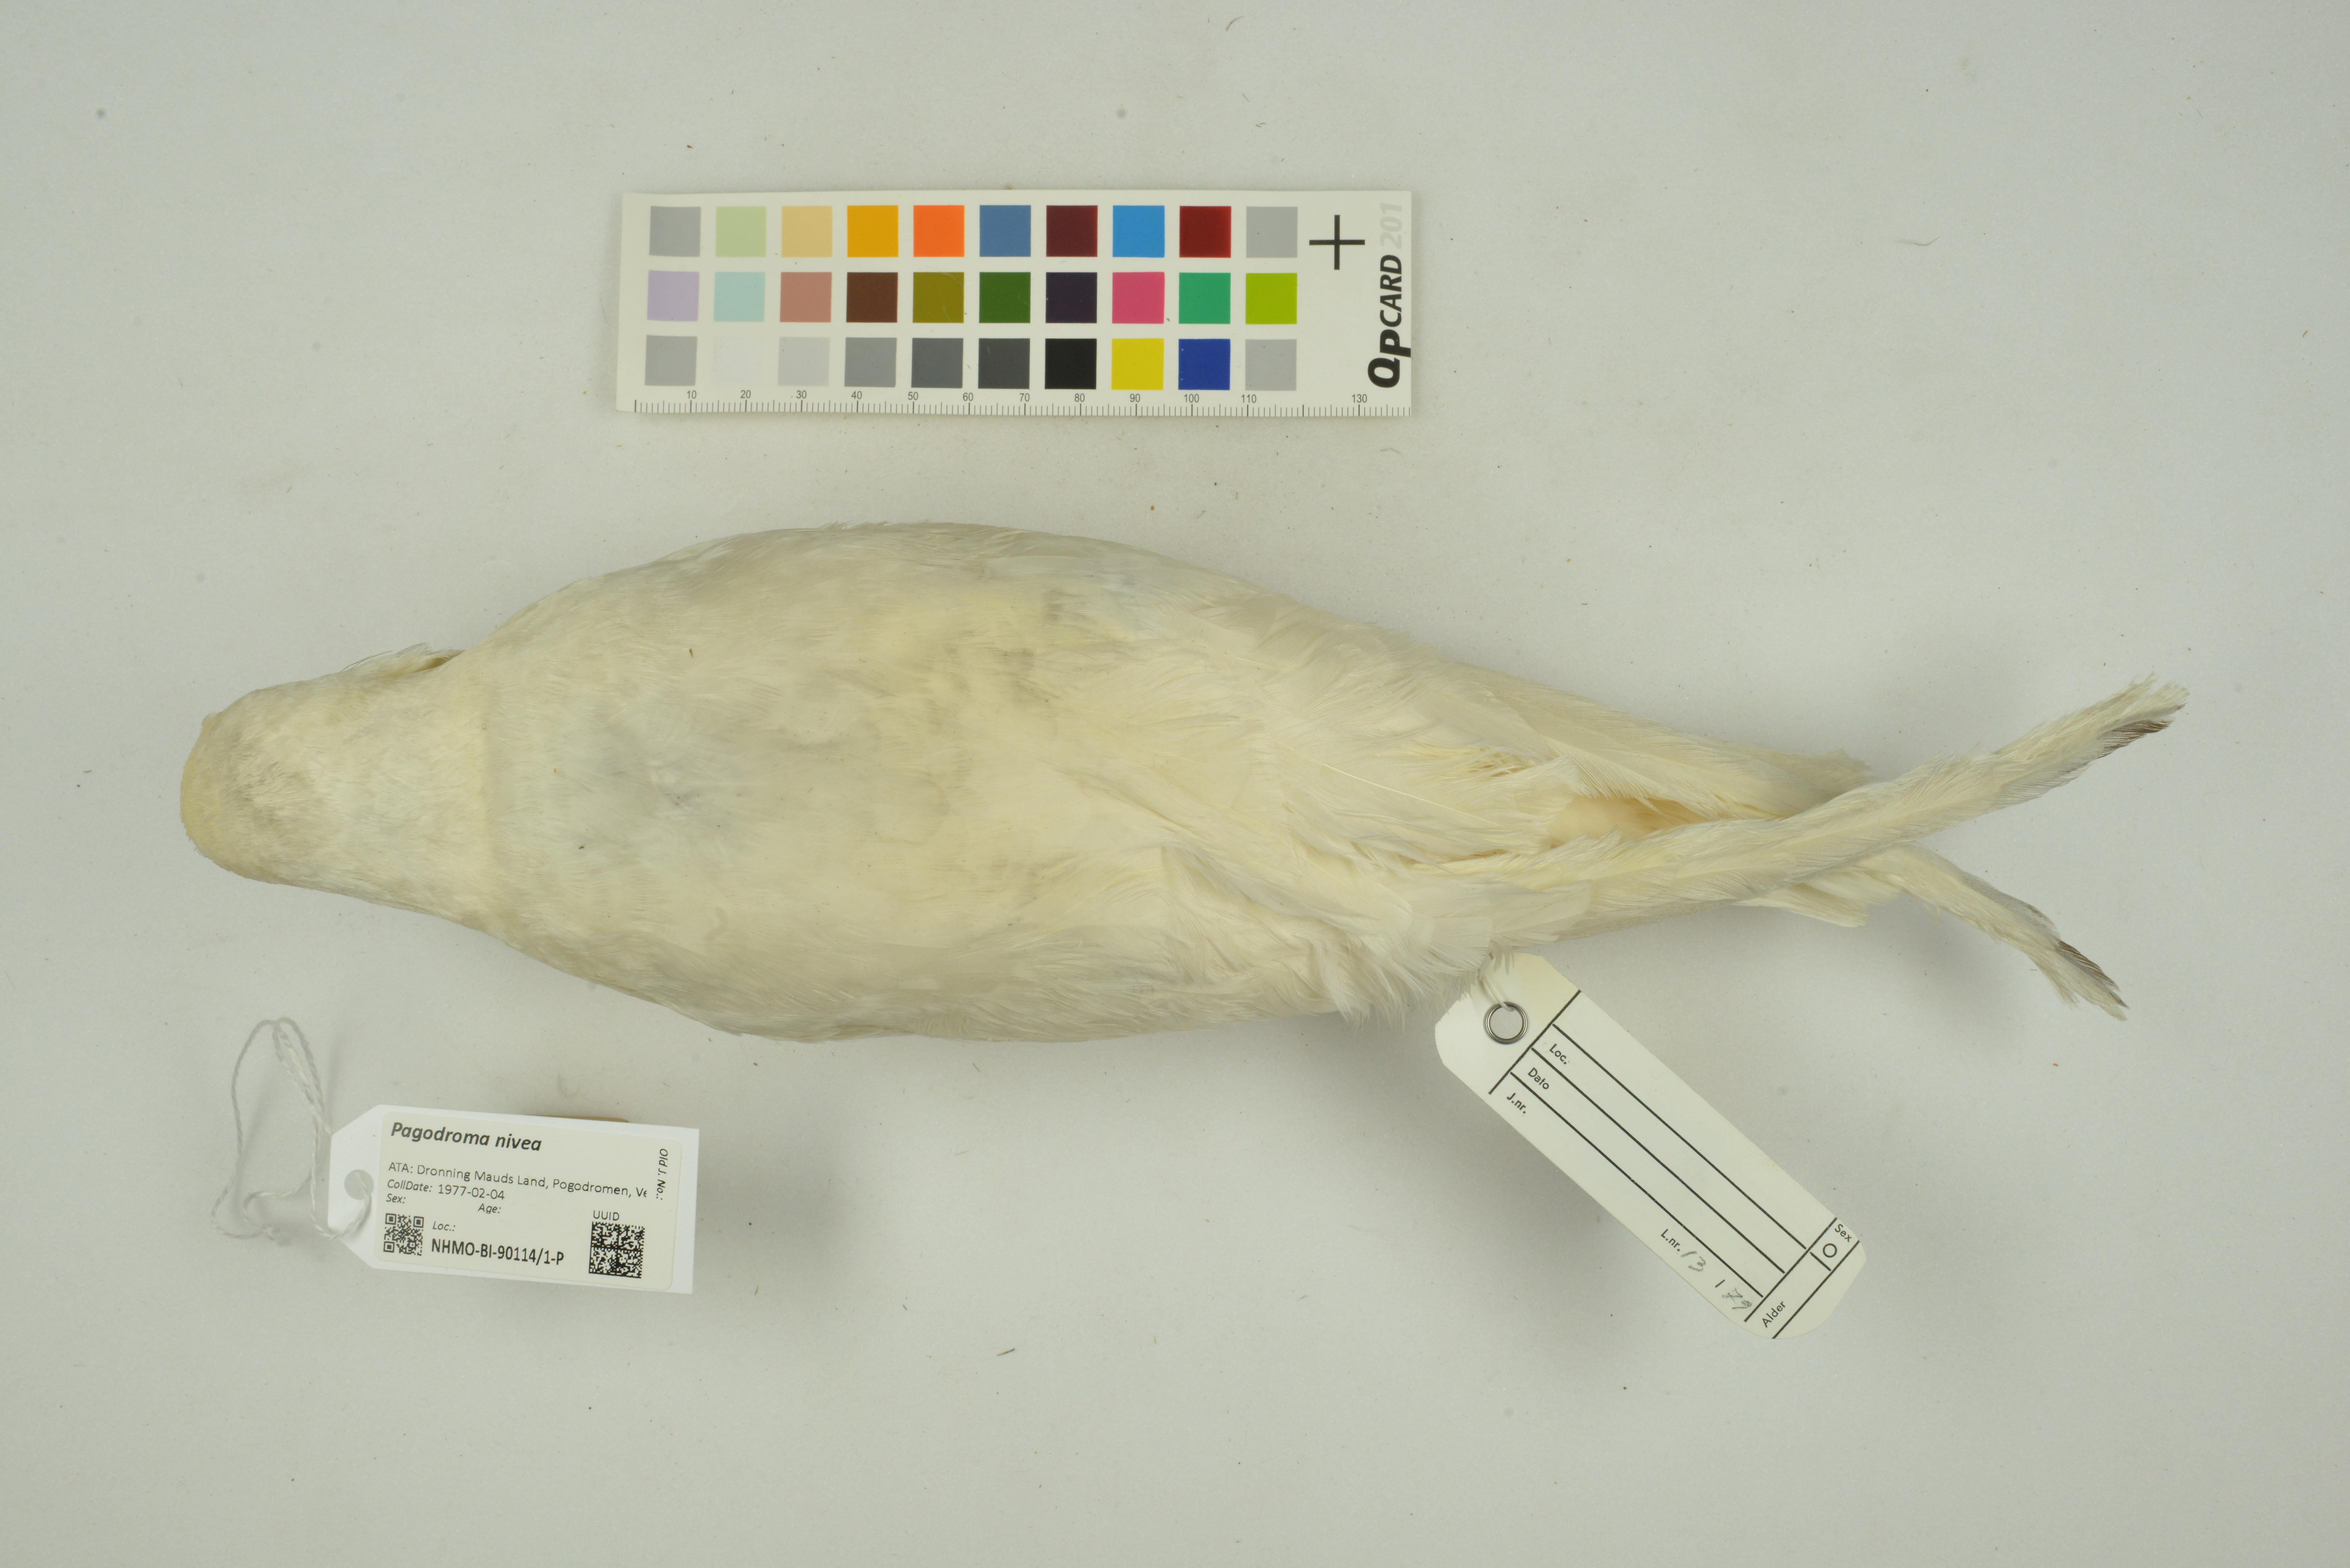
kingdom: Animalia
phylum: Chordata
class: Aves
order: Procellariiformes
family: Procellariidae
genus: Pagodroma
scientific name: Pagodroma nivea
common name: Snow petrel
